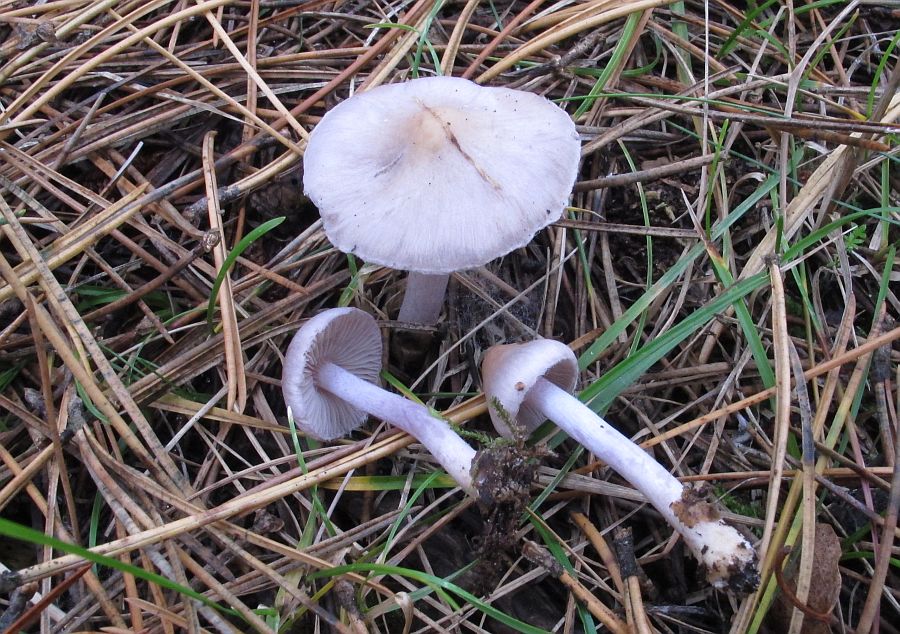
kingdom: Fungi
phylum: Basidiomycota
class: Agaricomycetes
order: Agaricales
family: Inocybaceae
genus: Inocybe
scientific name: Inocybe geophylla
